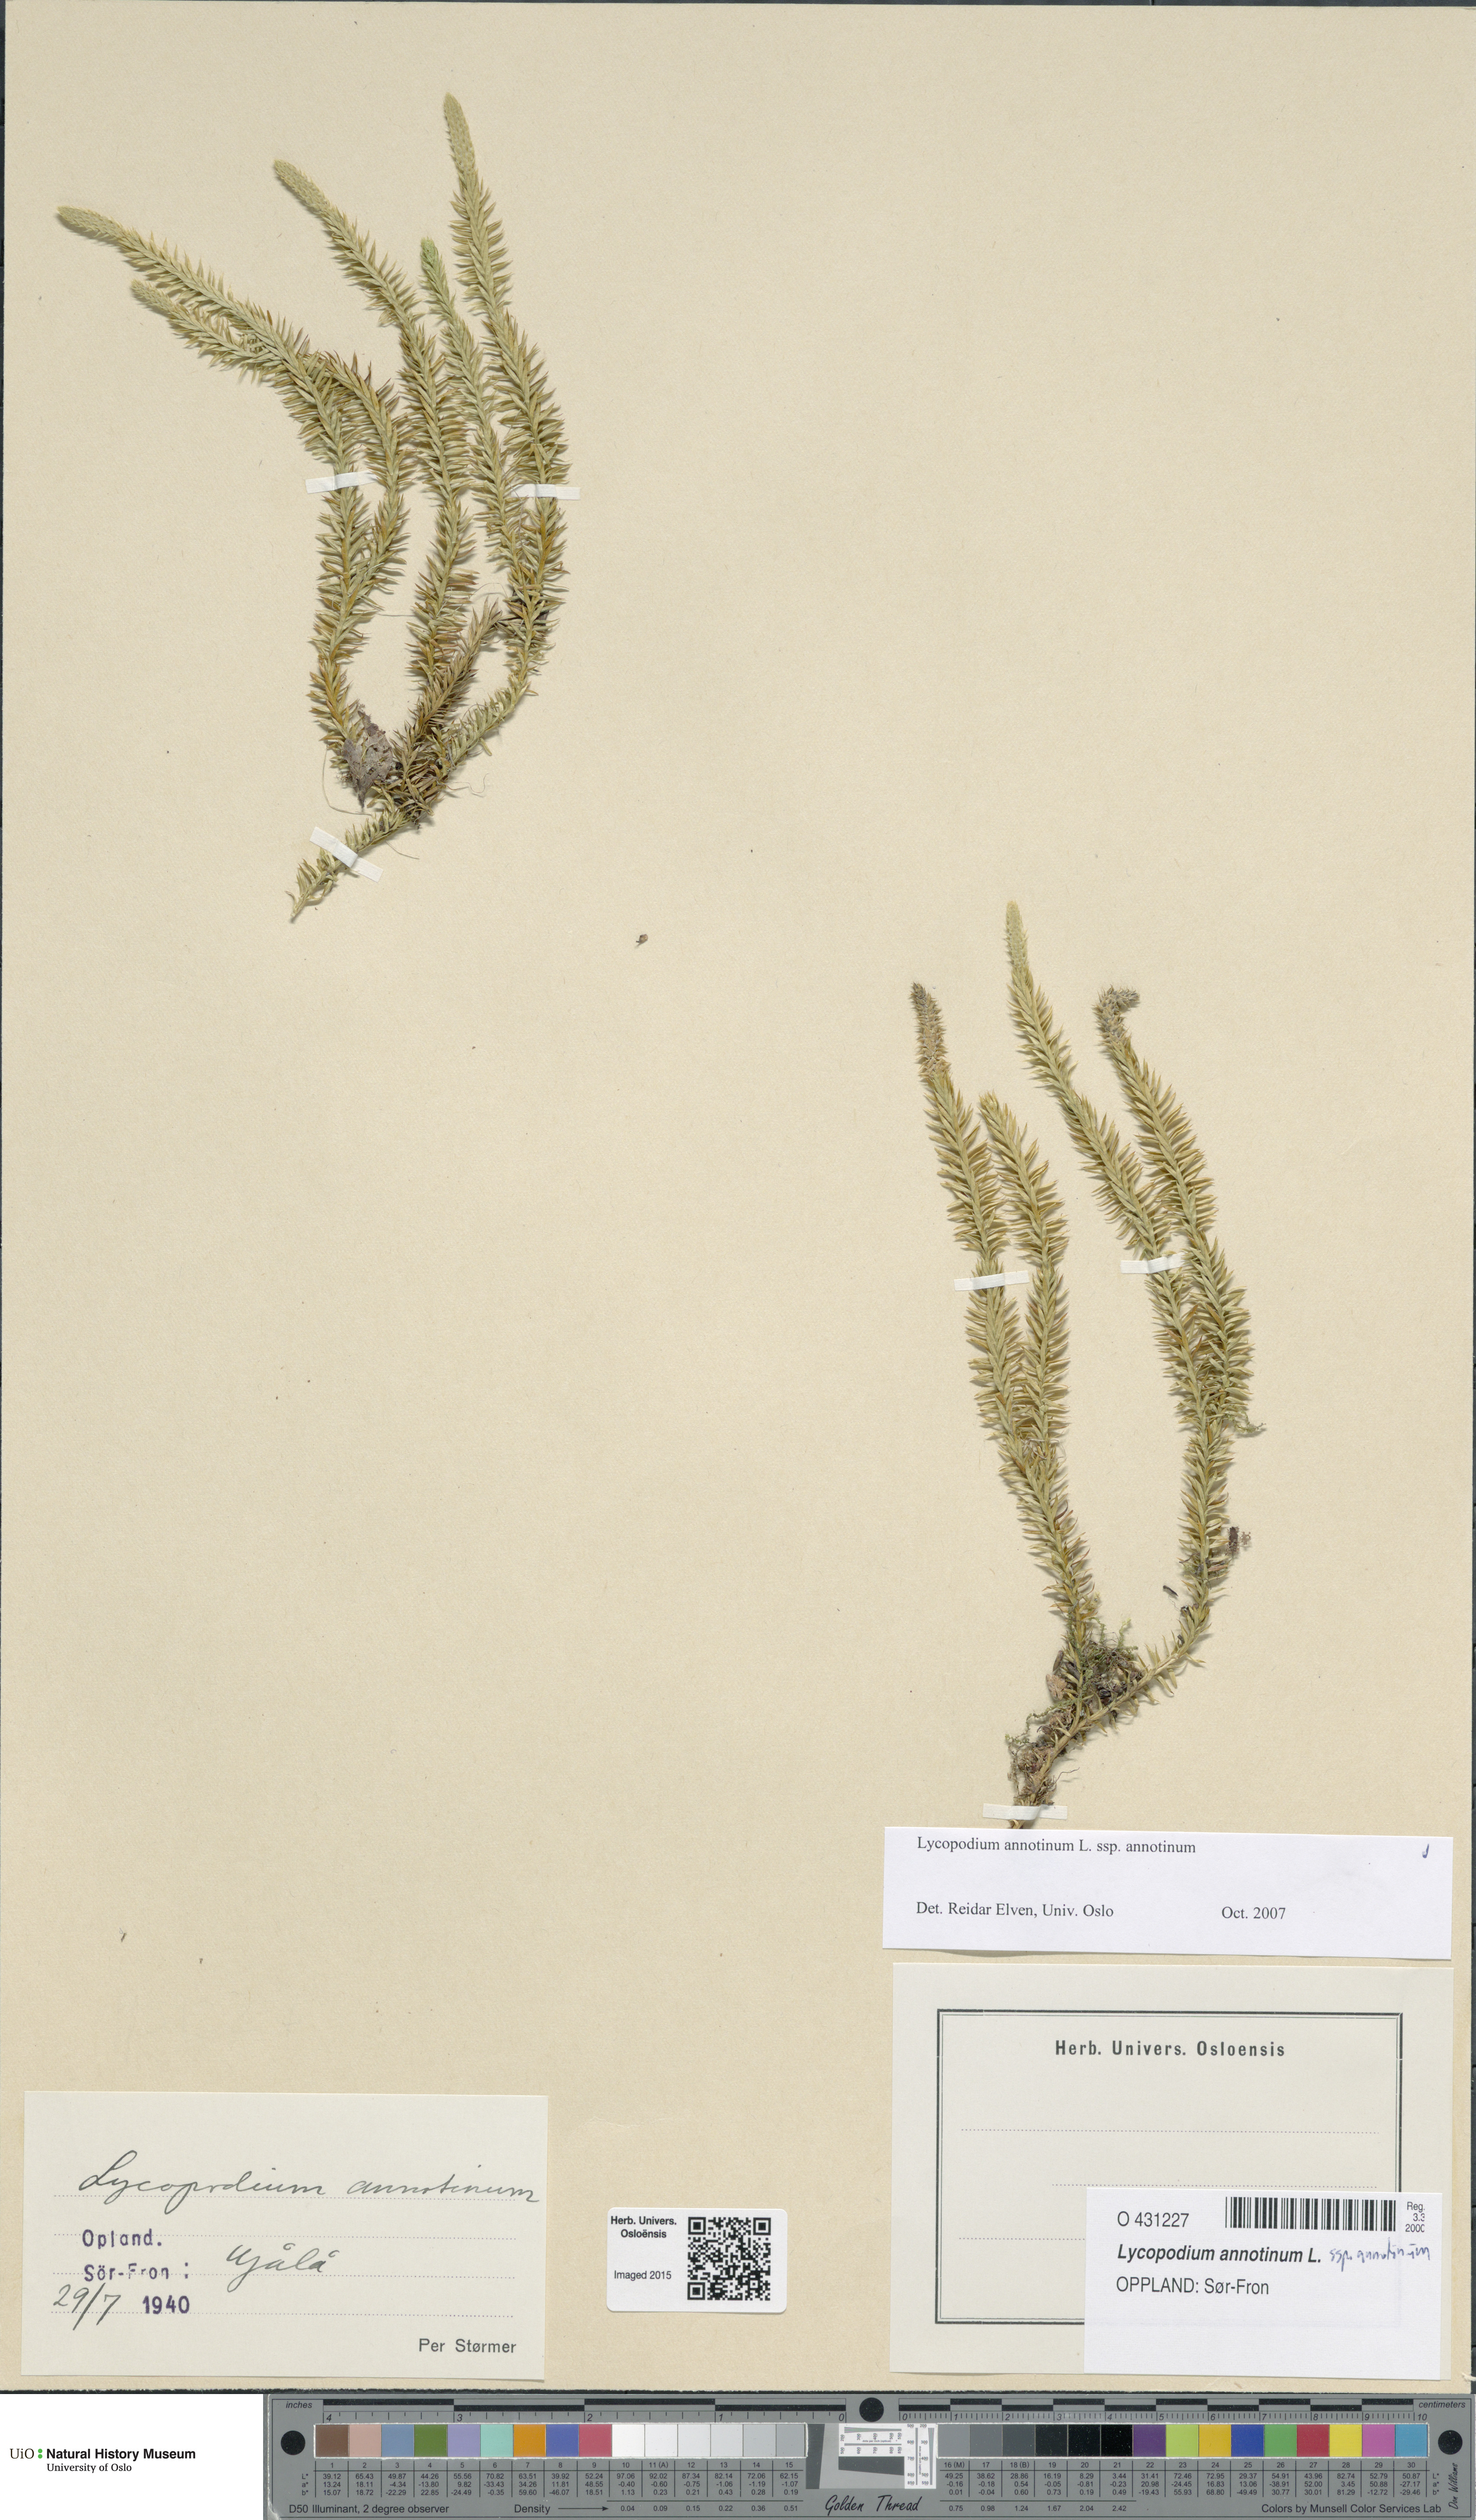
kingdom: Plantae
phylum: Tracheophyta
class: Lycopodiopsida
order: Lycopodiales
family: Lycopodiaceae
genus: Spinulum
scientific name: Spinulum annotinum
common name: Interrupted club-moss
